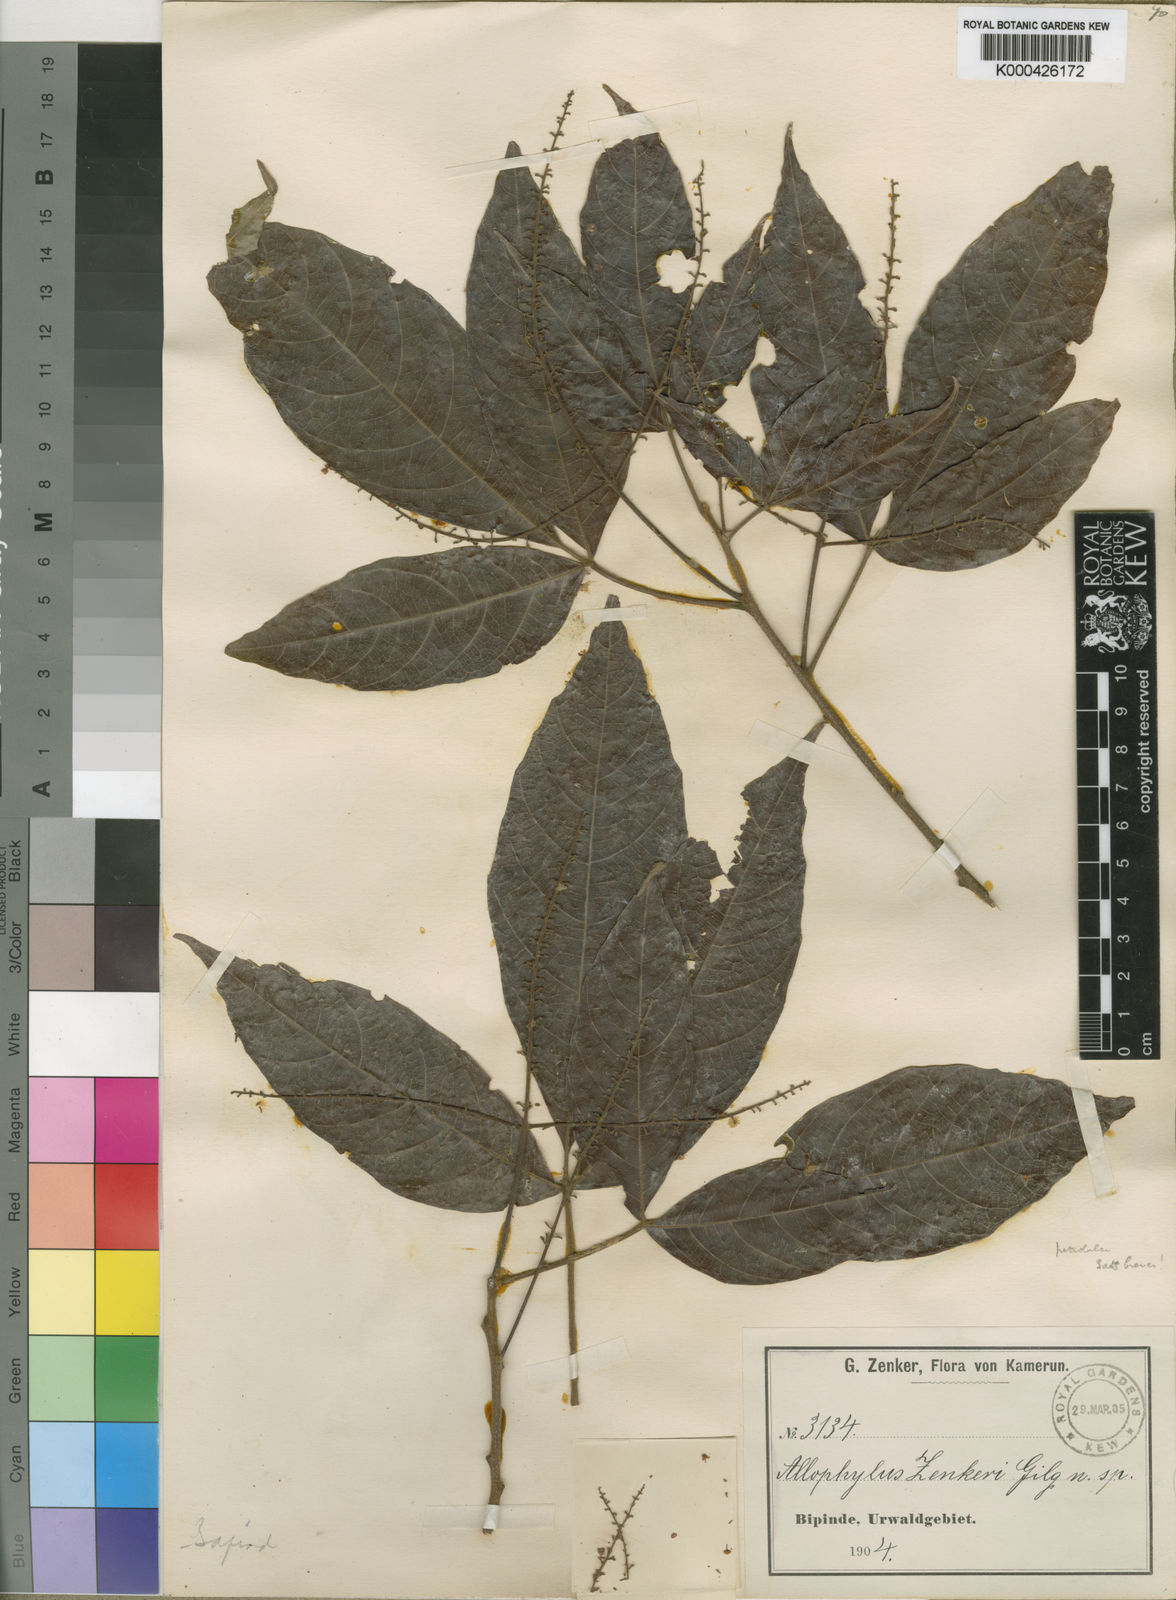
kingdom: Plantae
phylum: Tracheophyta
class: Magnoliopsida
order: Sapindales
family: Sapindaceae
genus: Allophylus
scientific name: Allophylus zenkeri
